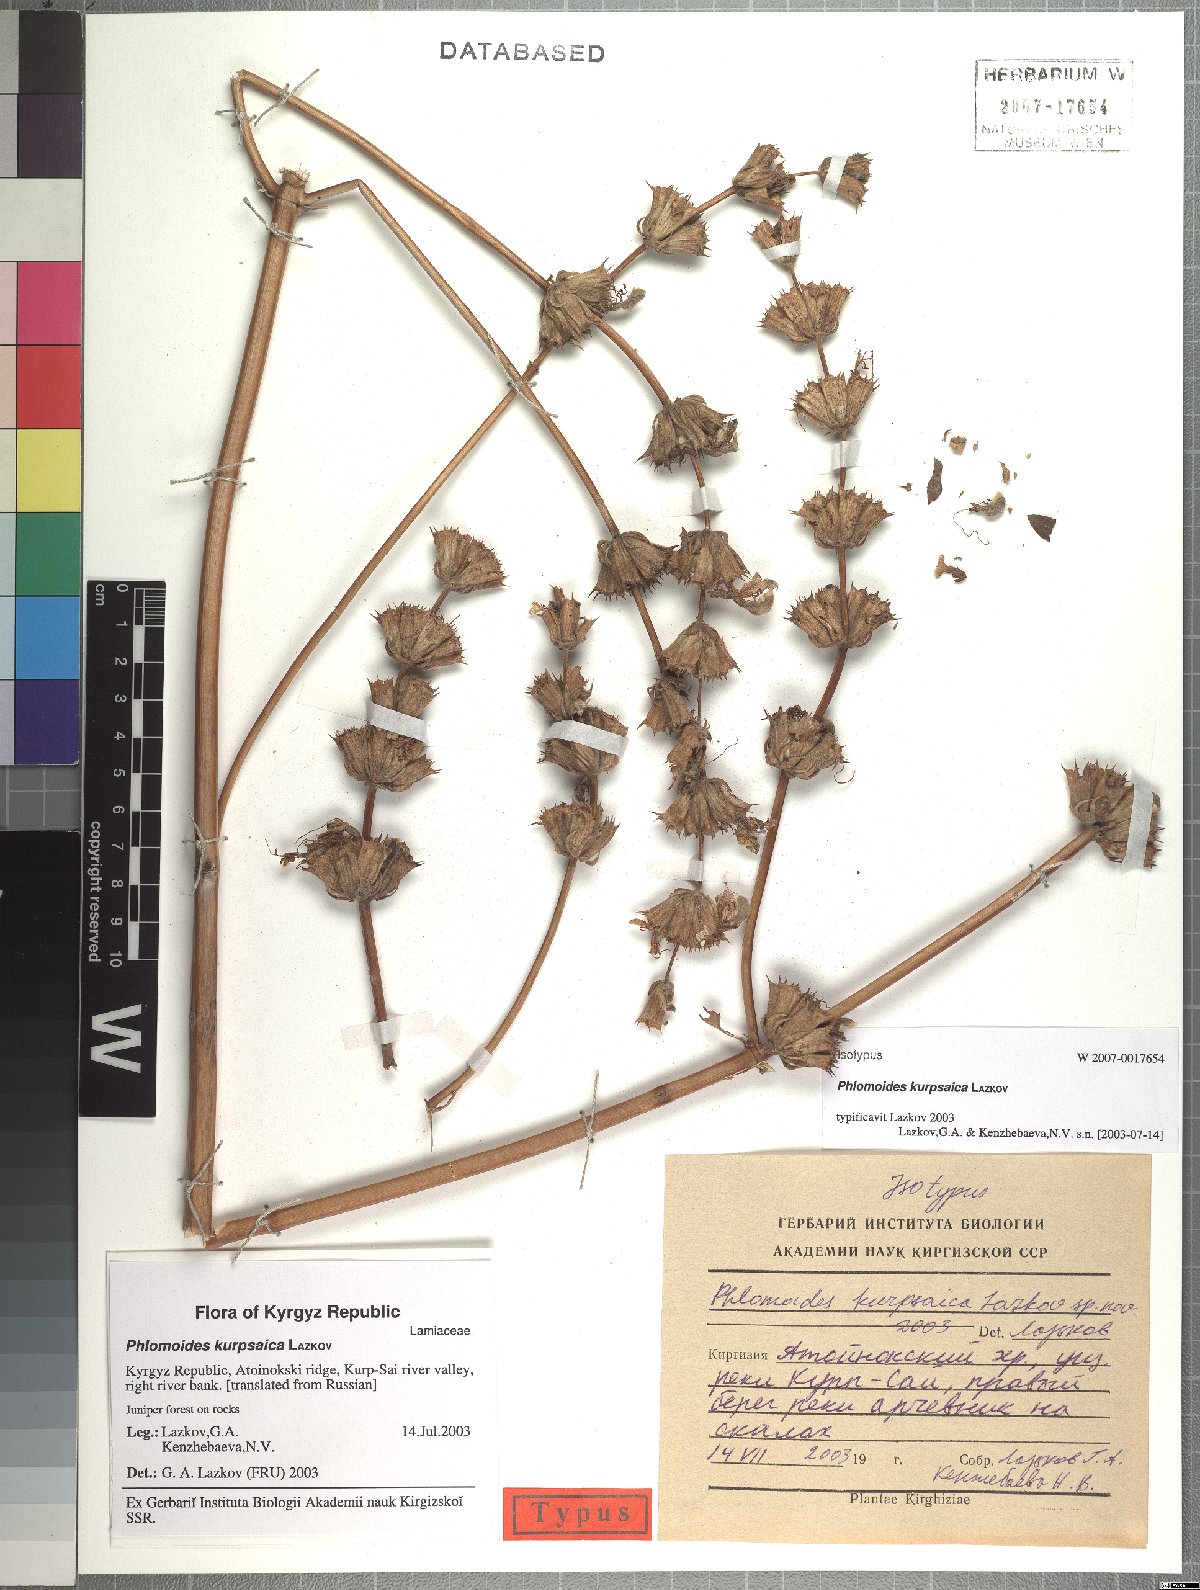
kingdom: Plantae
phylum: Tracheophyta
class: Magnoliopsida
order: Lamiales
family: Lamiaceae
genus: Phlomis
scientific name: Phlomis
